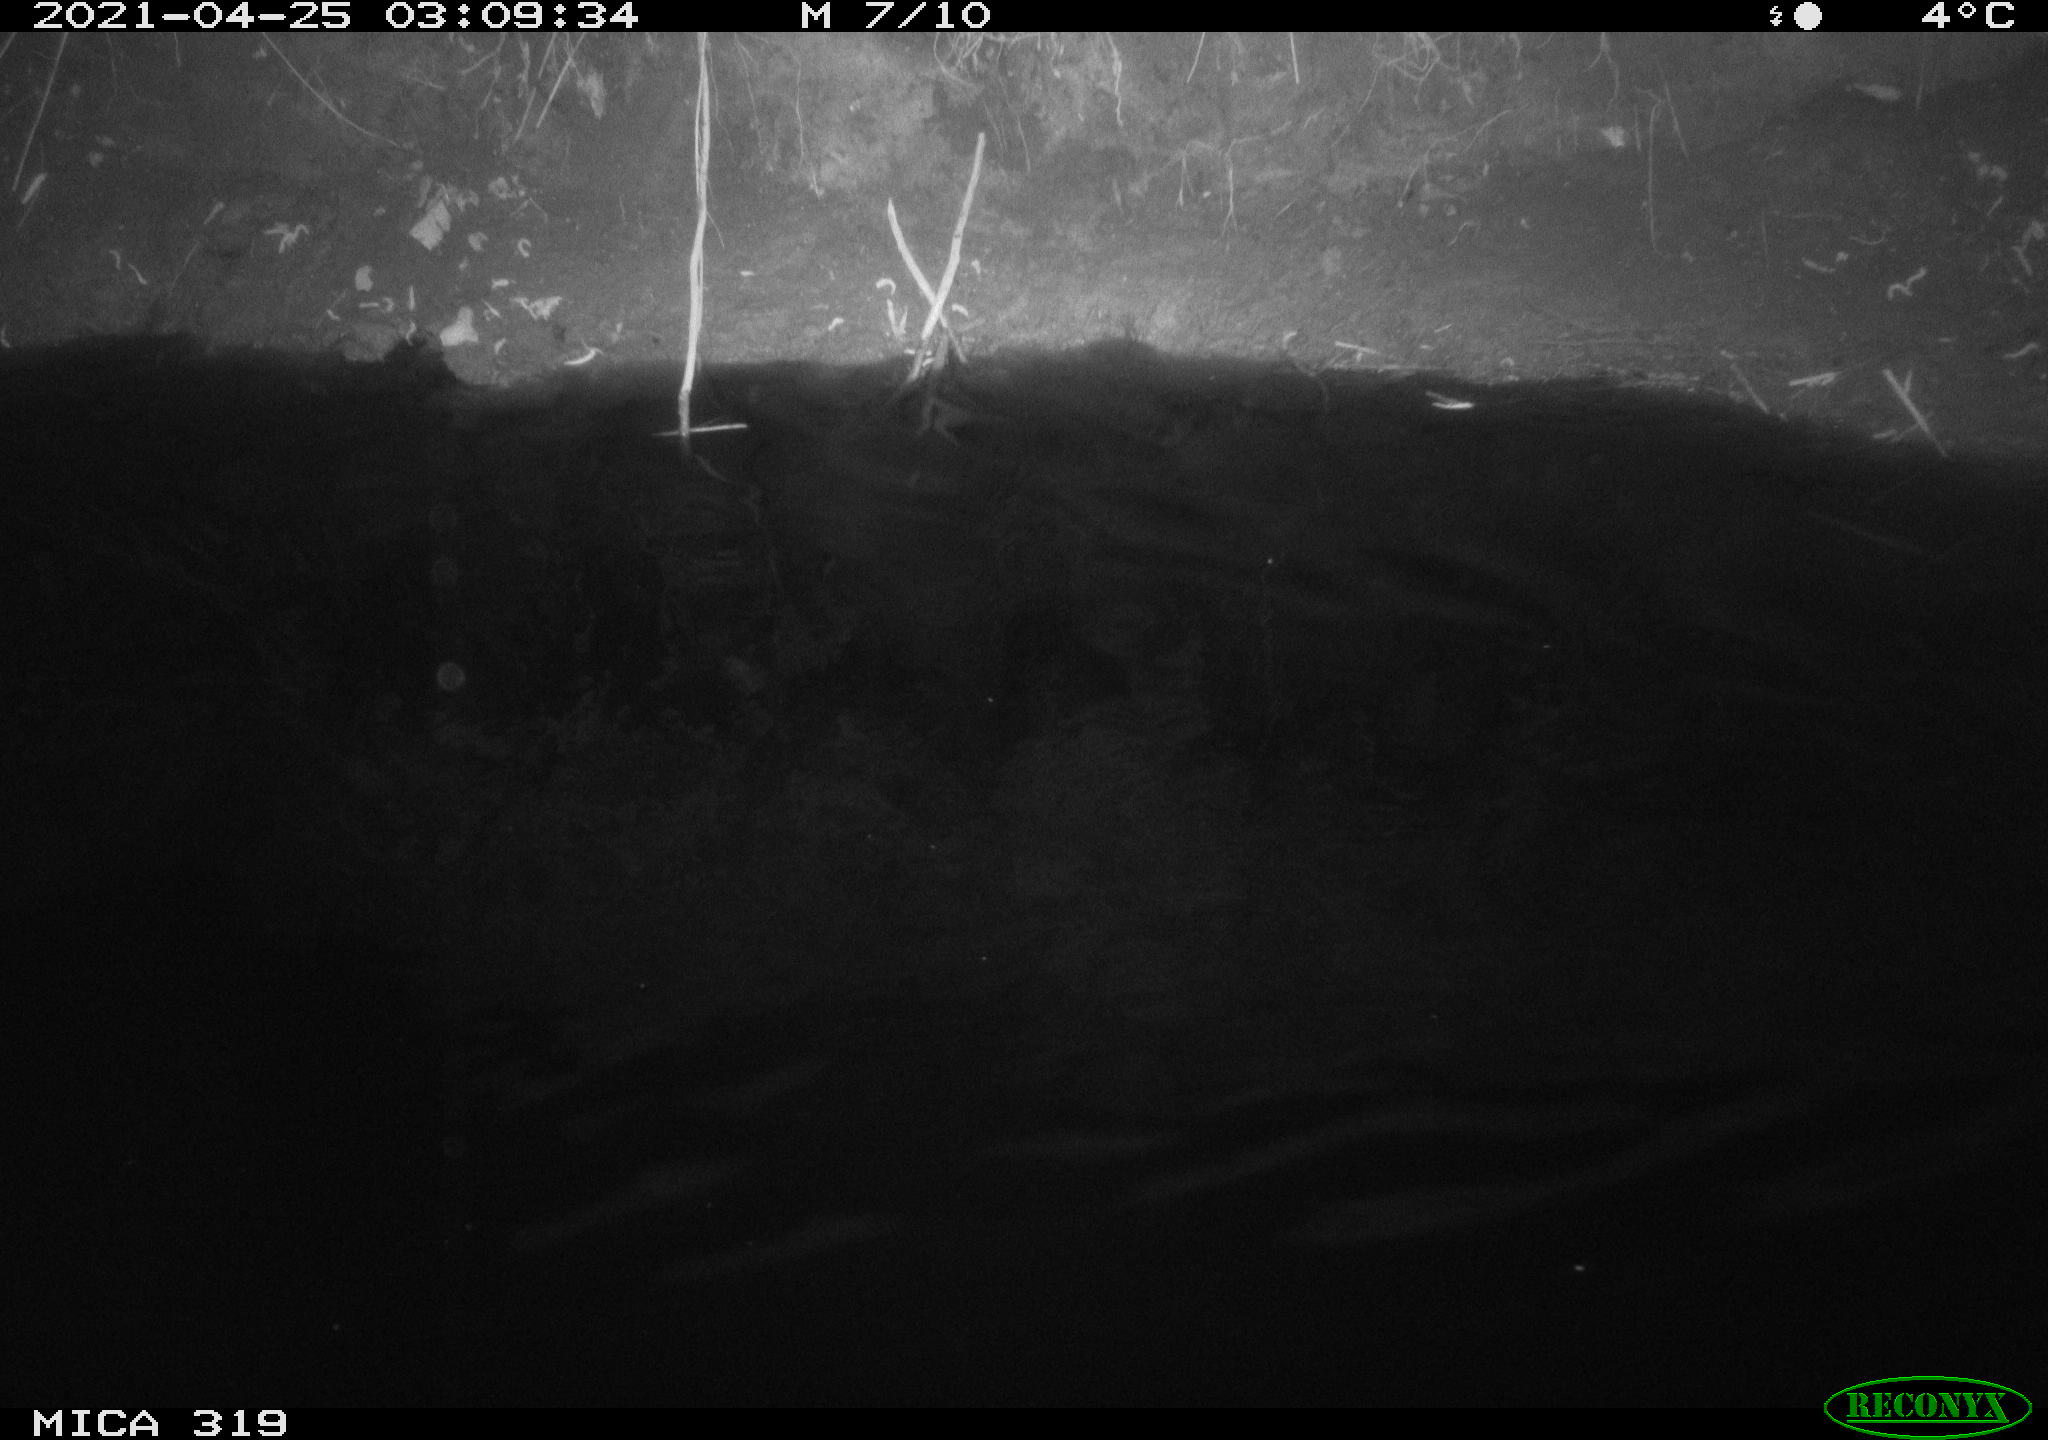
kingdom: Animalia
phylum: Chordata
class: Aves
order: Anseriformes
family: Anatidae
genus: Anas
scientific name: Anas platyrhynchos
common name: Mallard
